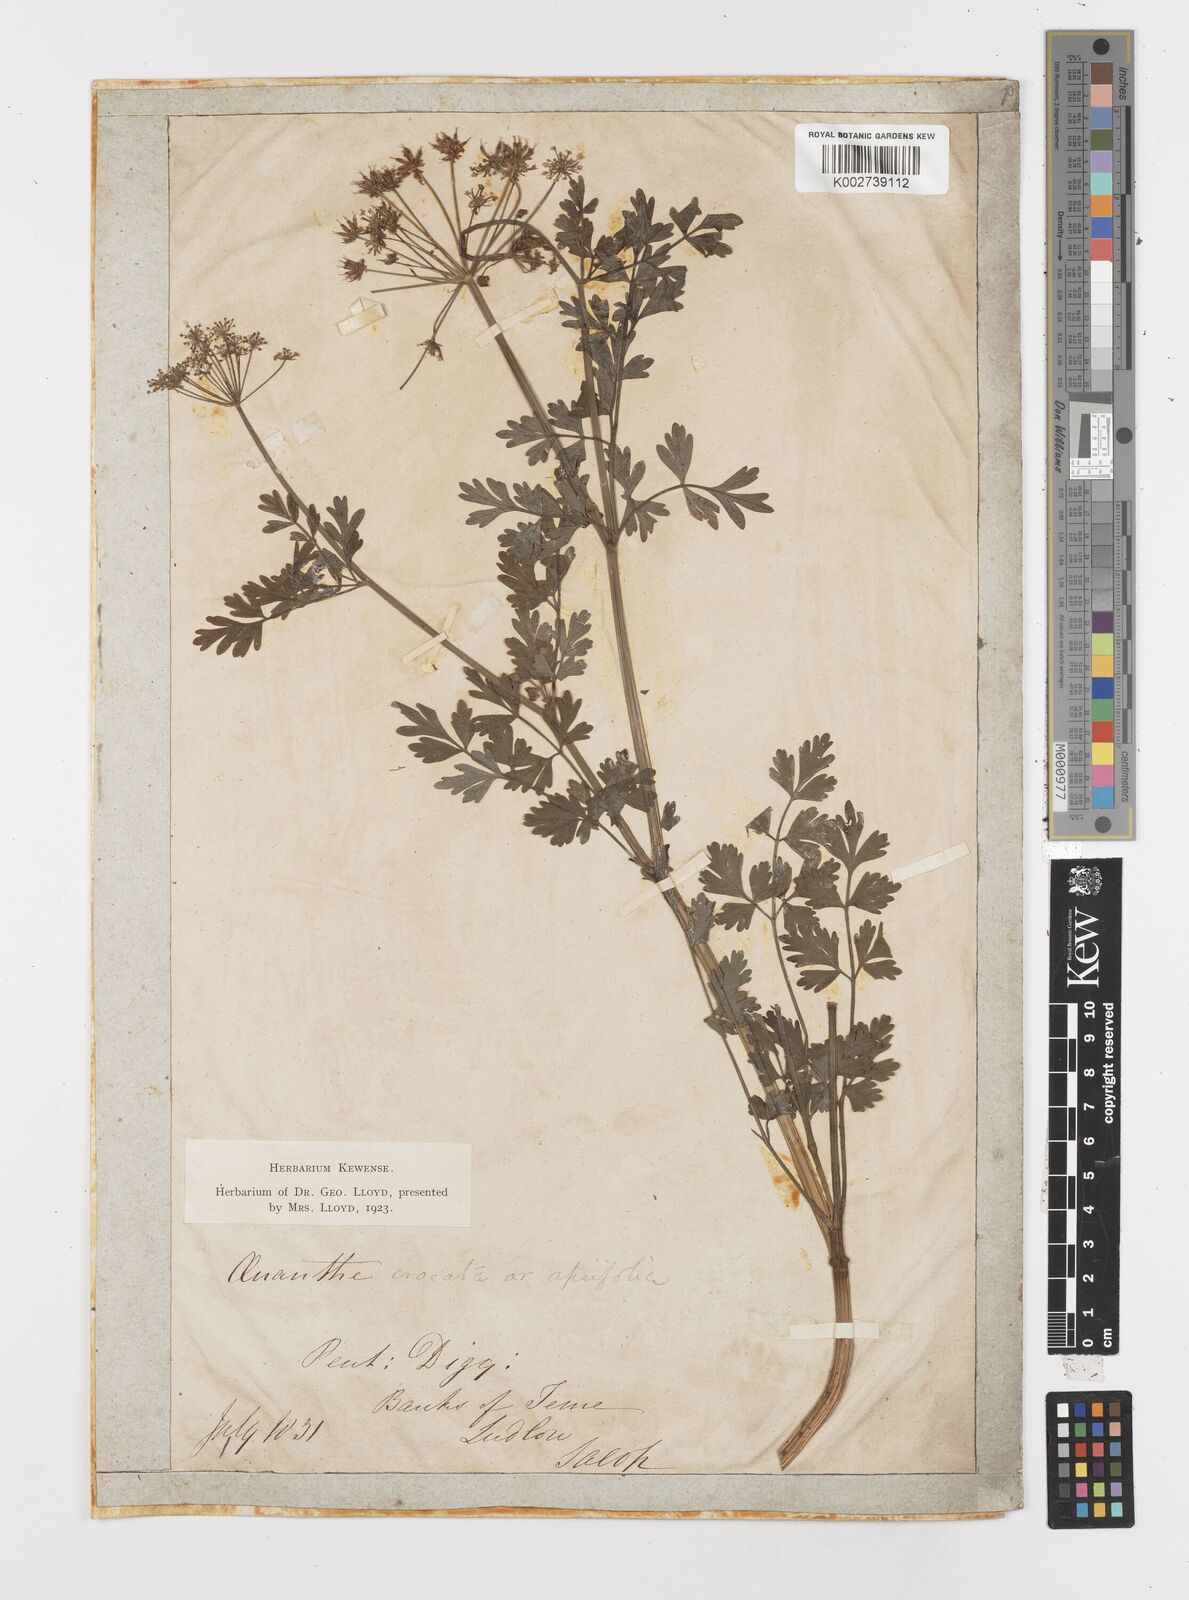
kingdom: Plantae
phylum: Tracheophyta
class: Magnoliopsida
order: Apiales
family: Apiaceae
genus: Oenanthe
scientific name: Oenanthe crocata
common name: Hemlock water-dropwort
